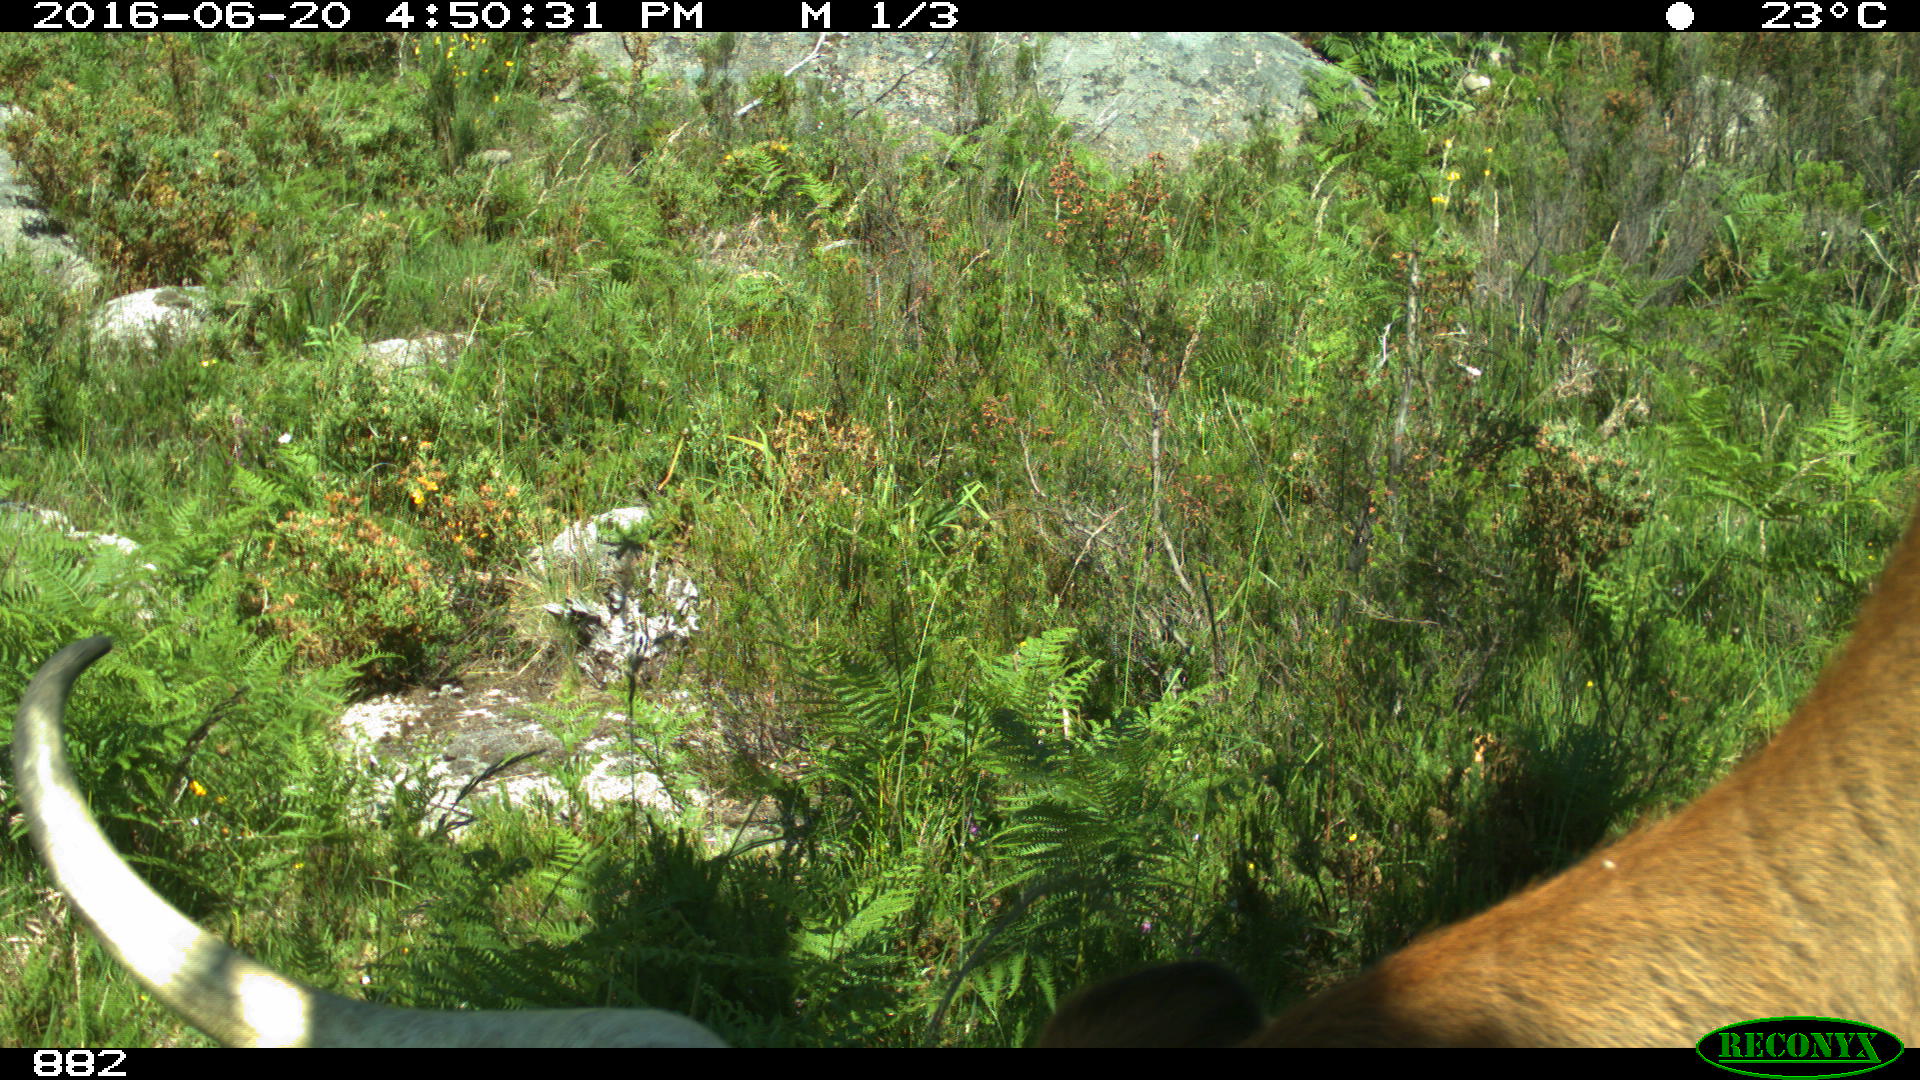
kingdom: Animalia
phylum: Chordata
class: Mammalia
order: Artiodactyla
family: Bovidae
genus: Bos
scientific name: Bos taurus
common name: Domesticated cattle
